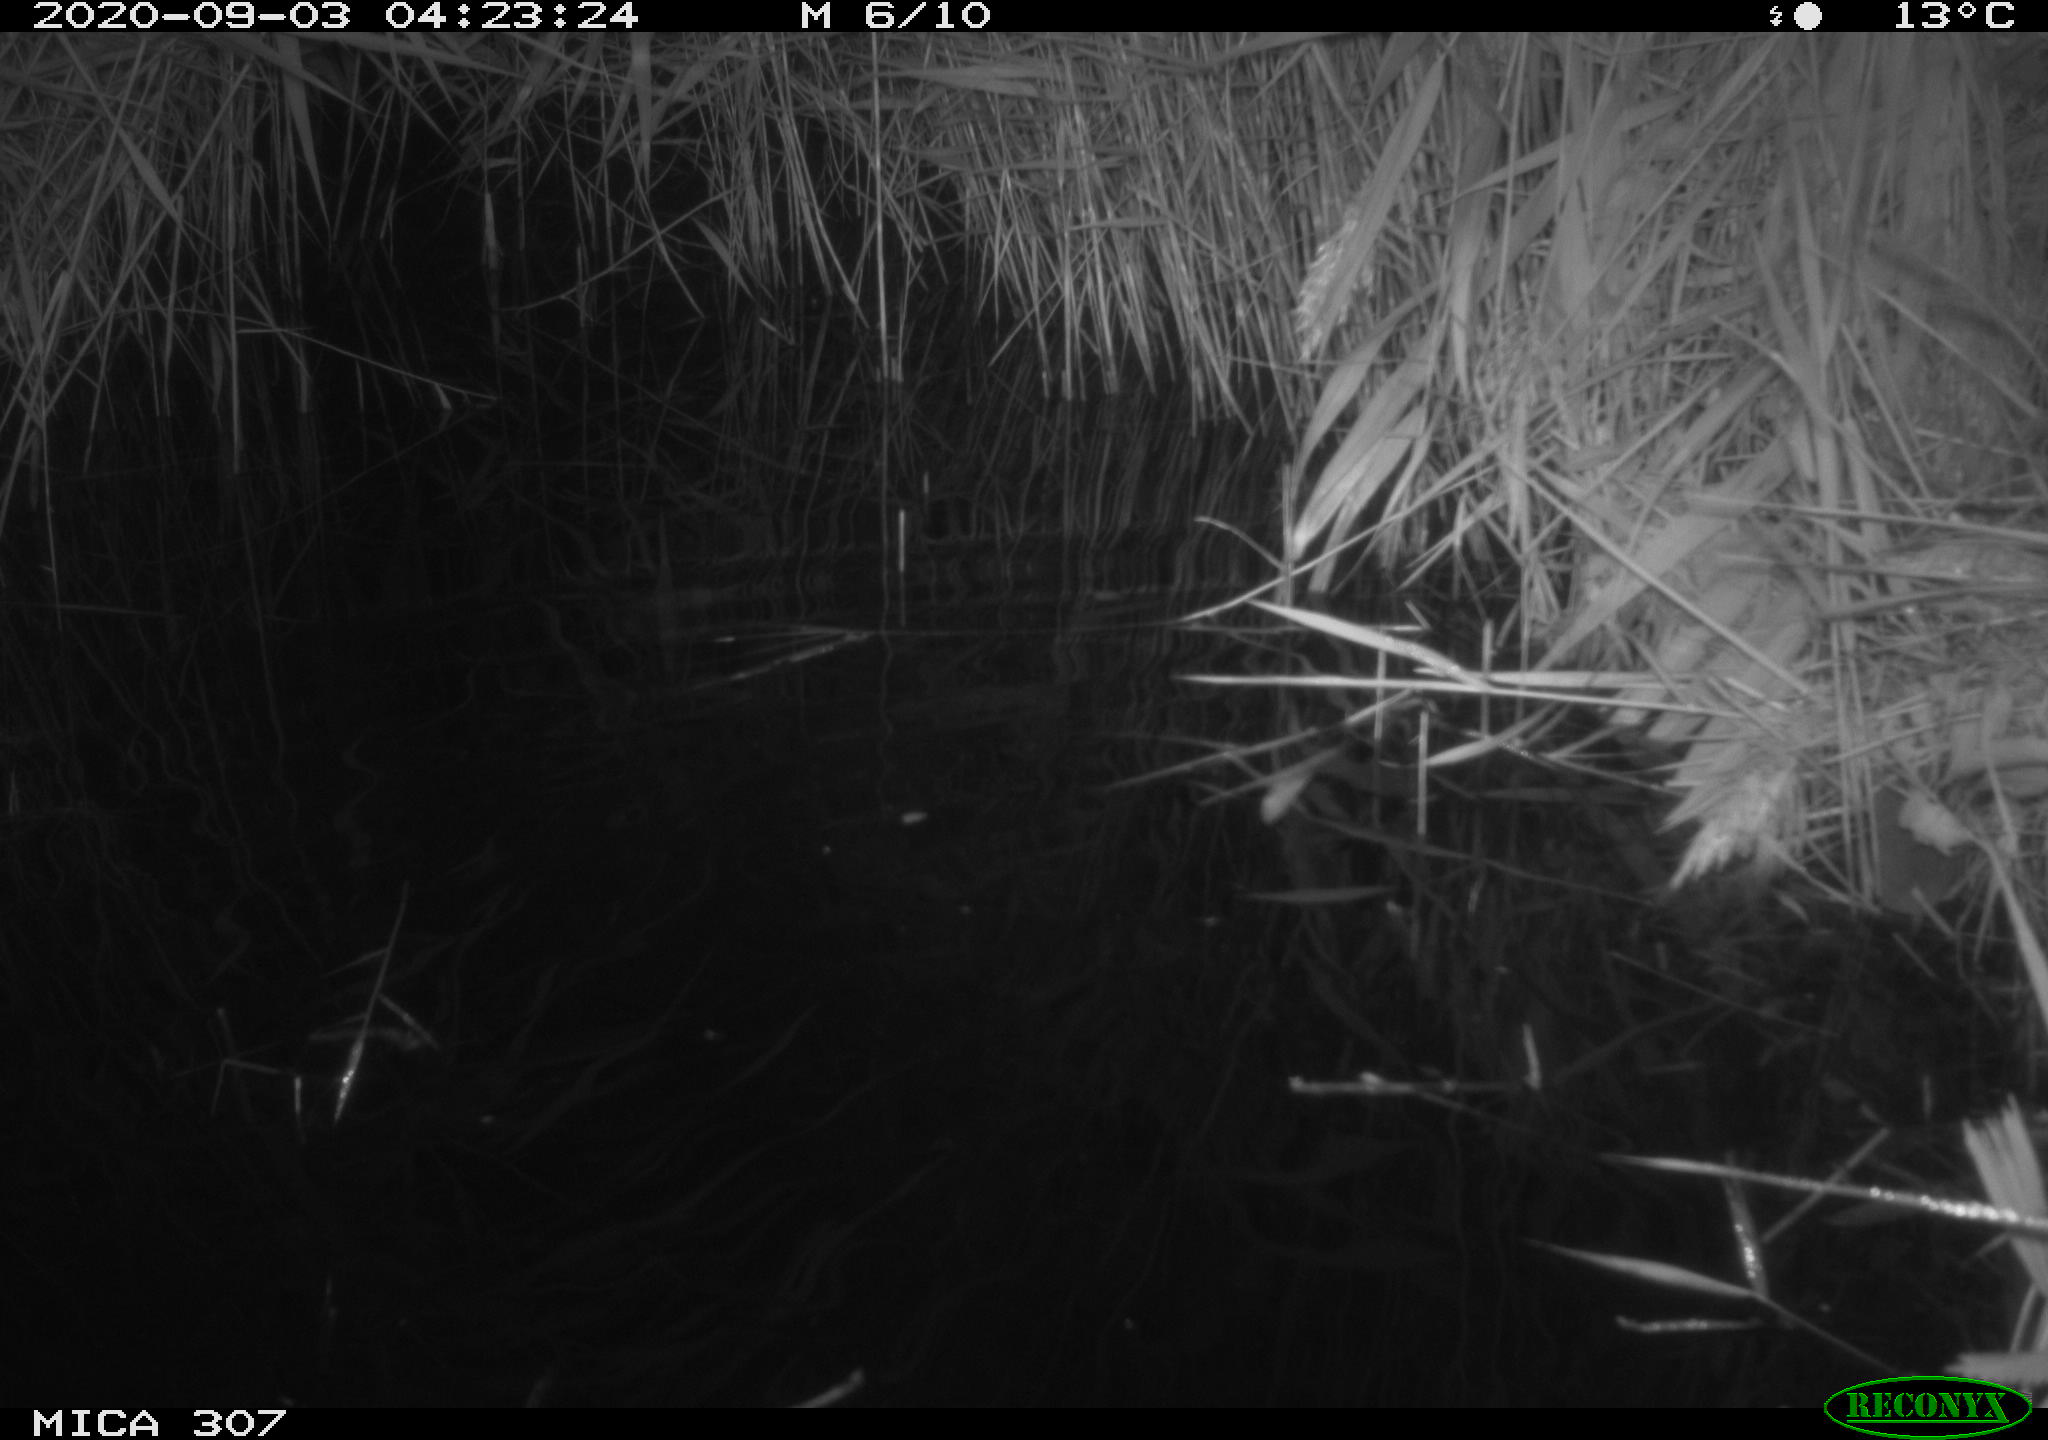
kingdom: Animalia
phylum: Chordata
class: Mammalia
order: Rodentia
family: Muridae
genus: Rattus
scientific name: Rattus norvegicus
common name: Brown rat
